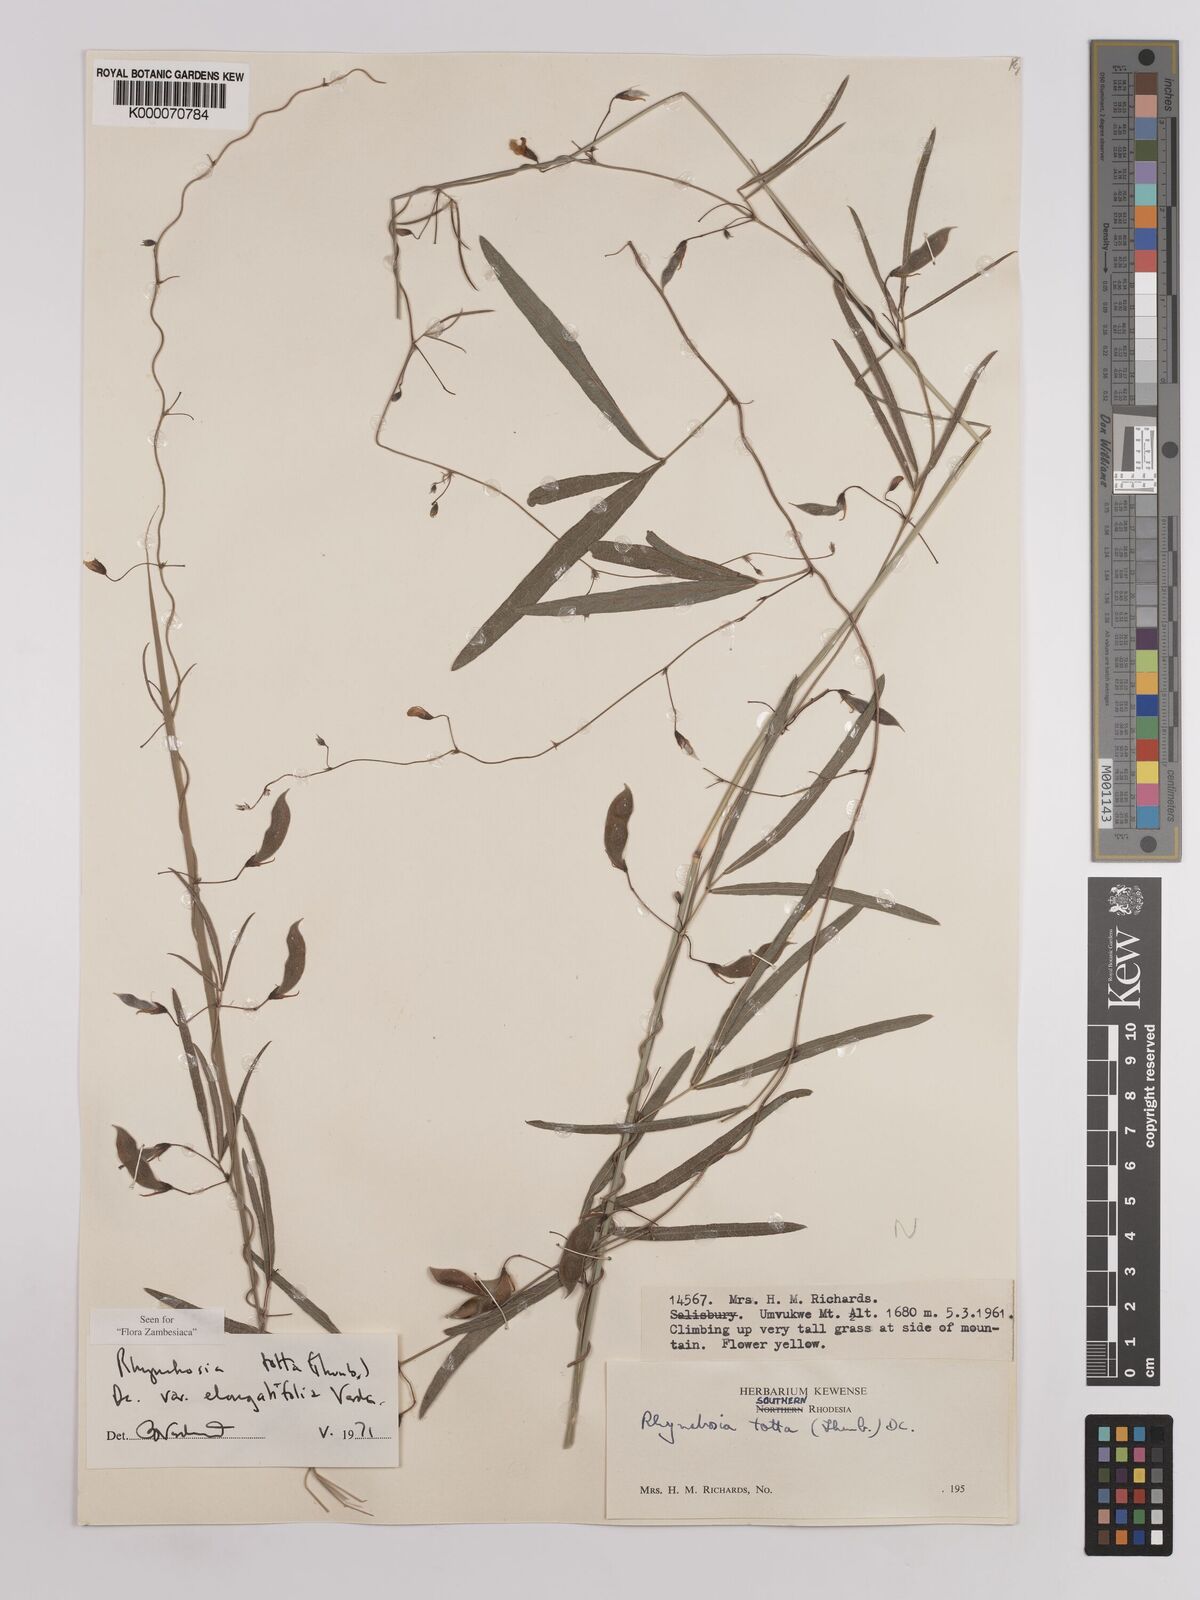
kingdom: Plantae
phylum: Tracheophyta
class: Magnoliopsida
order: Fabales
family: Fabaceae
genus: Rhynchosia
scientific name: Rhynchosia totta
